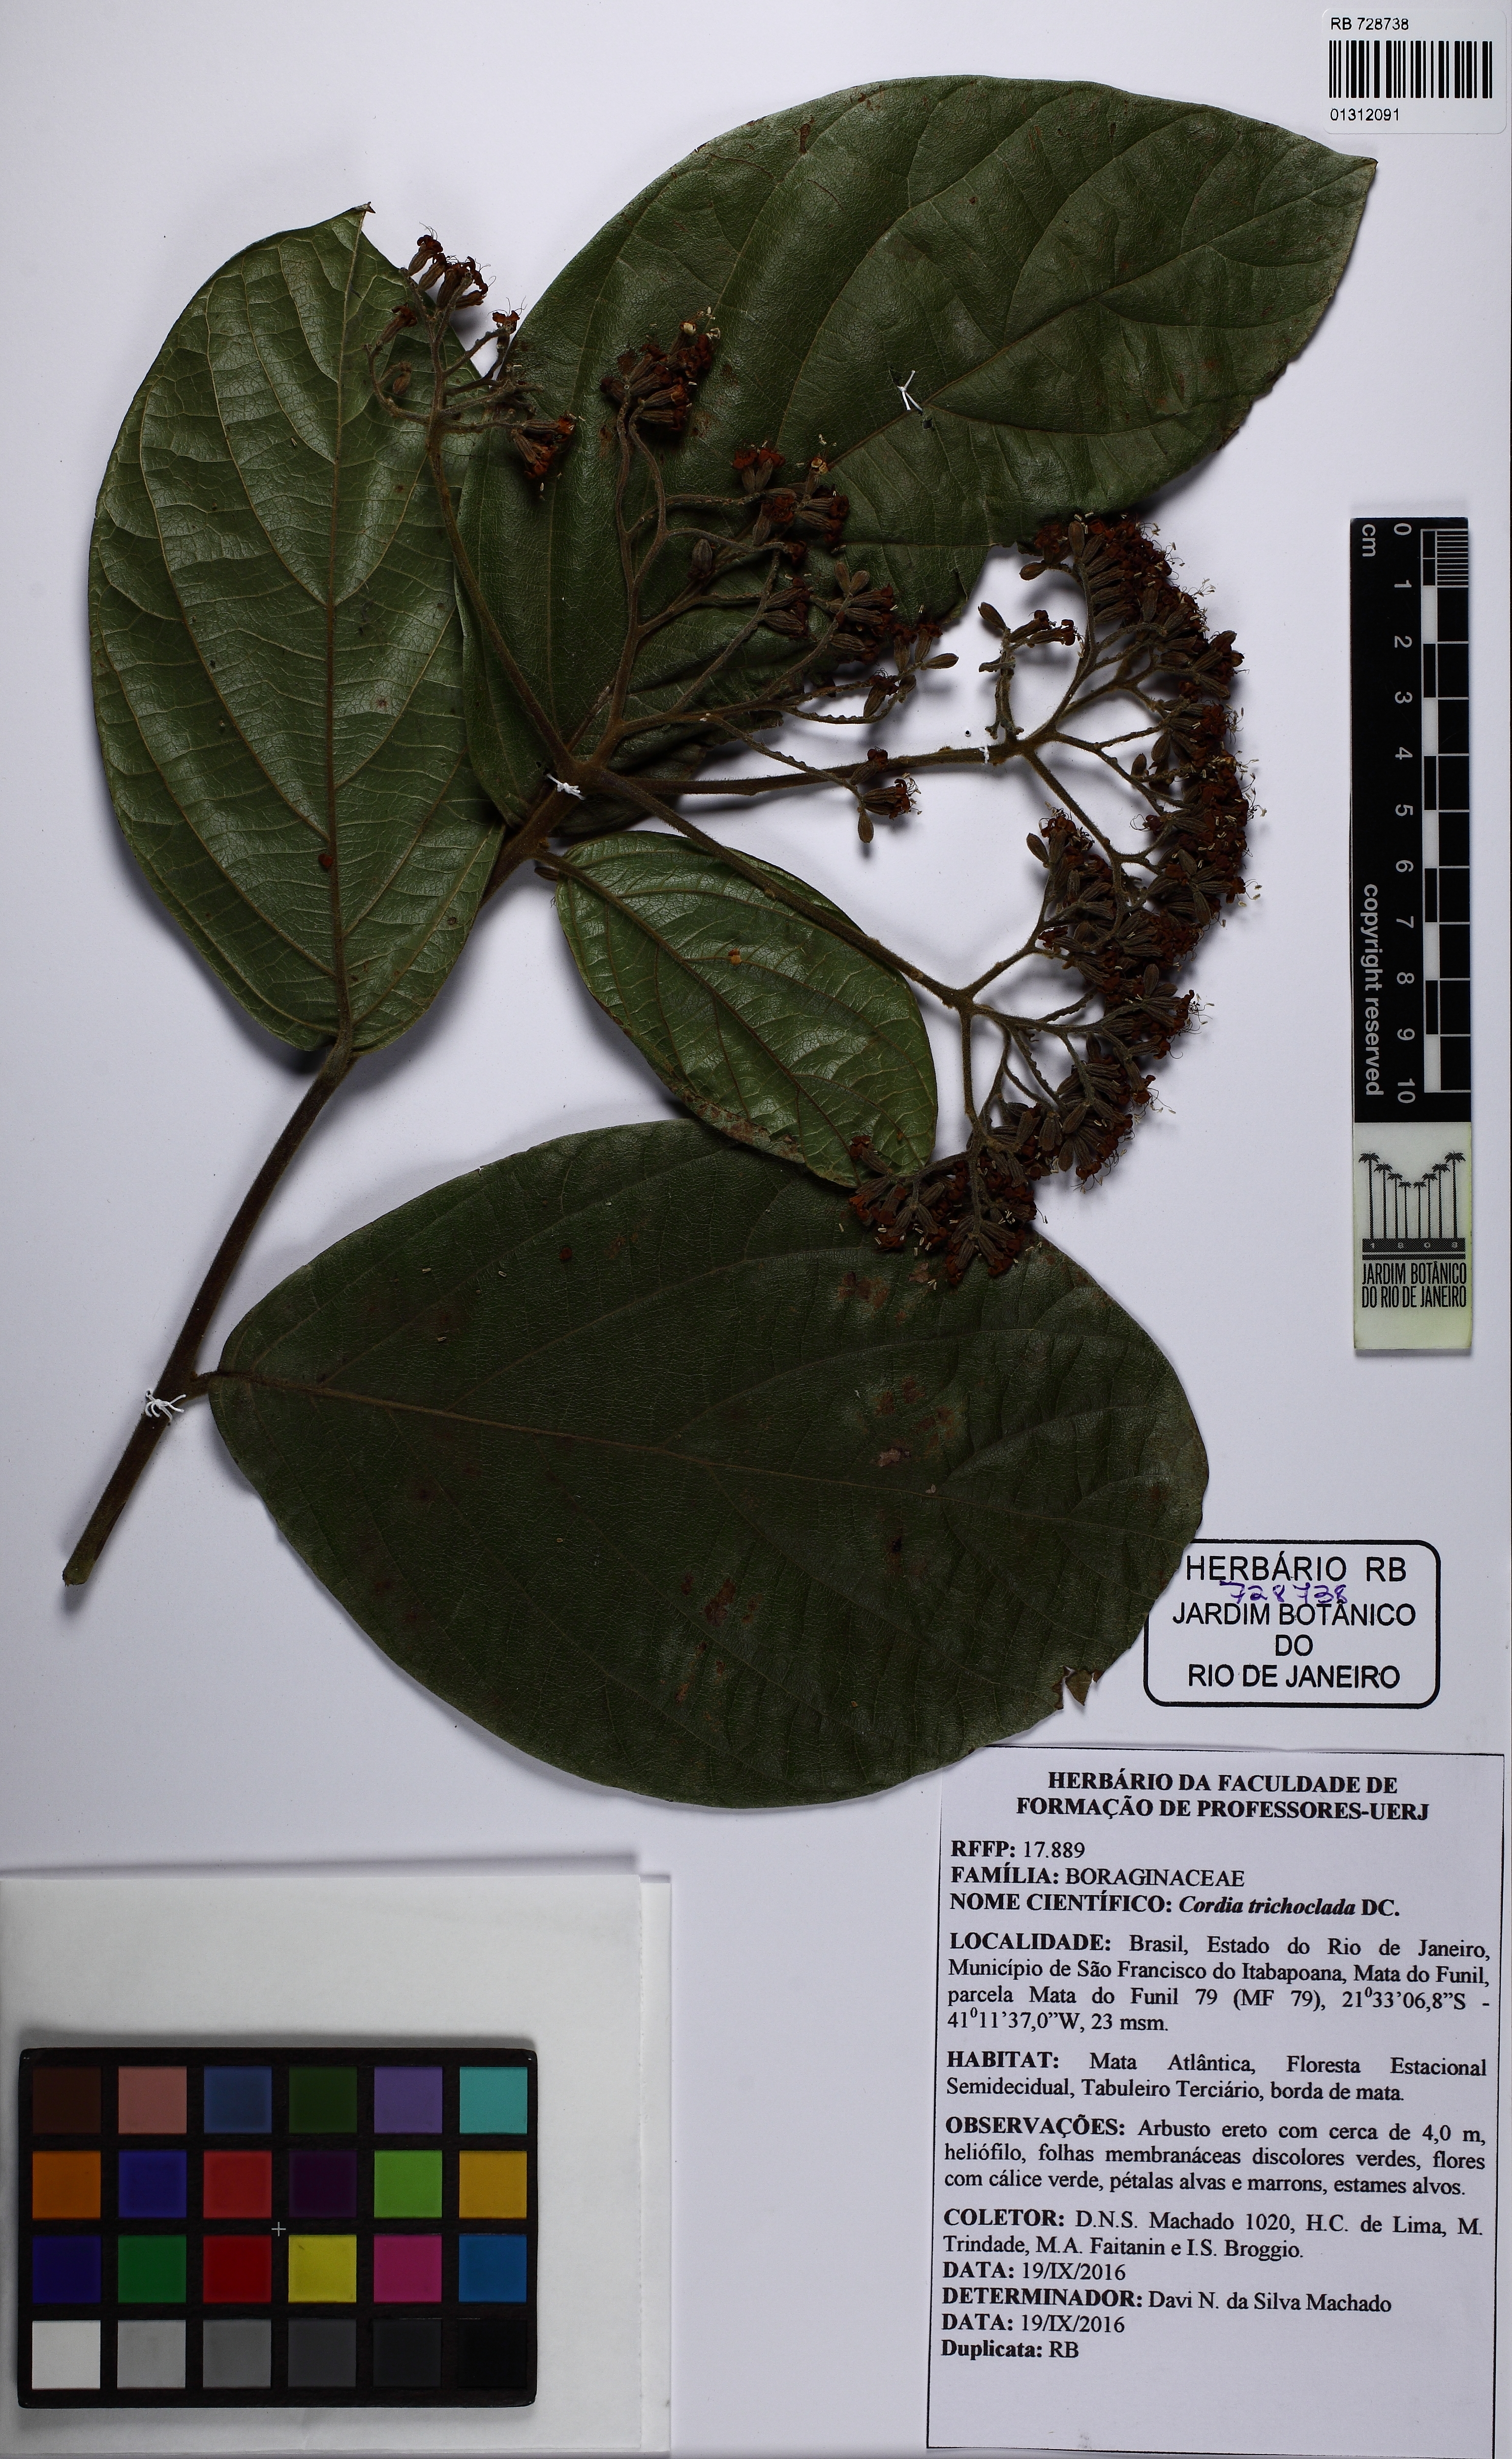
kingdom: Plantae
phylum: Tracheophyta
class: Magnoliopsida
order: Boraginales
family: Cordiaceae
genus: Cordia
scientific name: Cordia trichoclada
